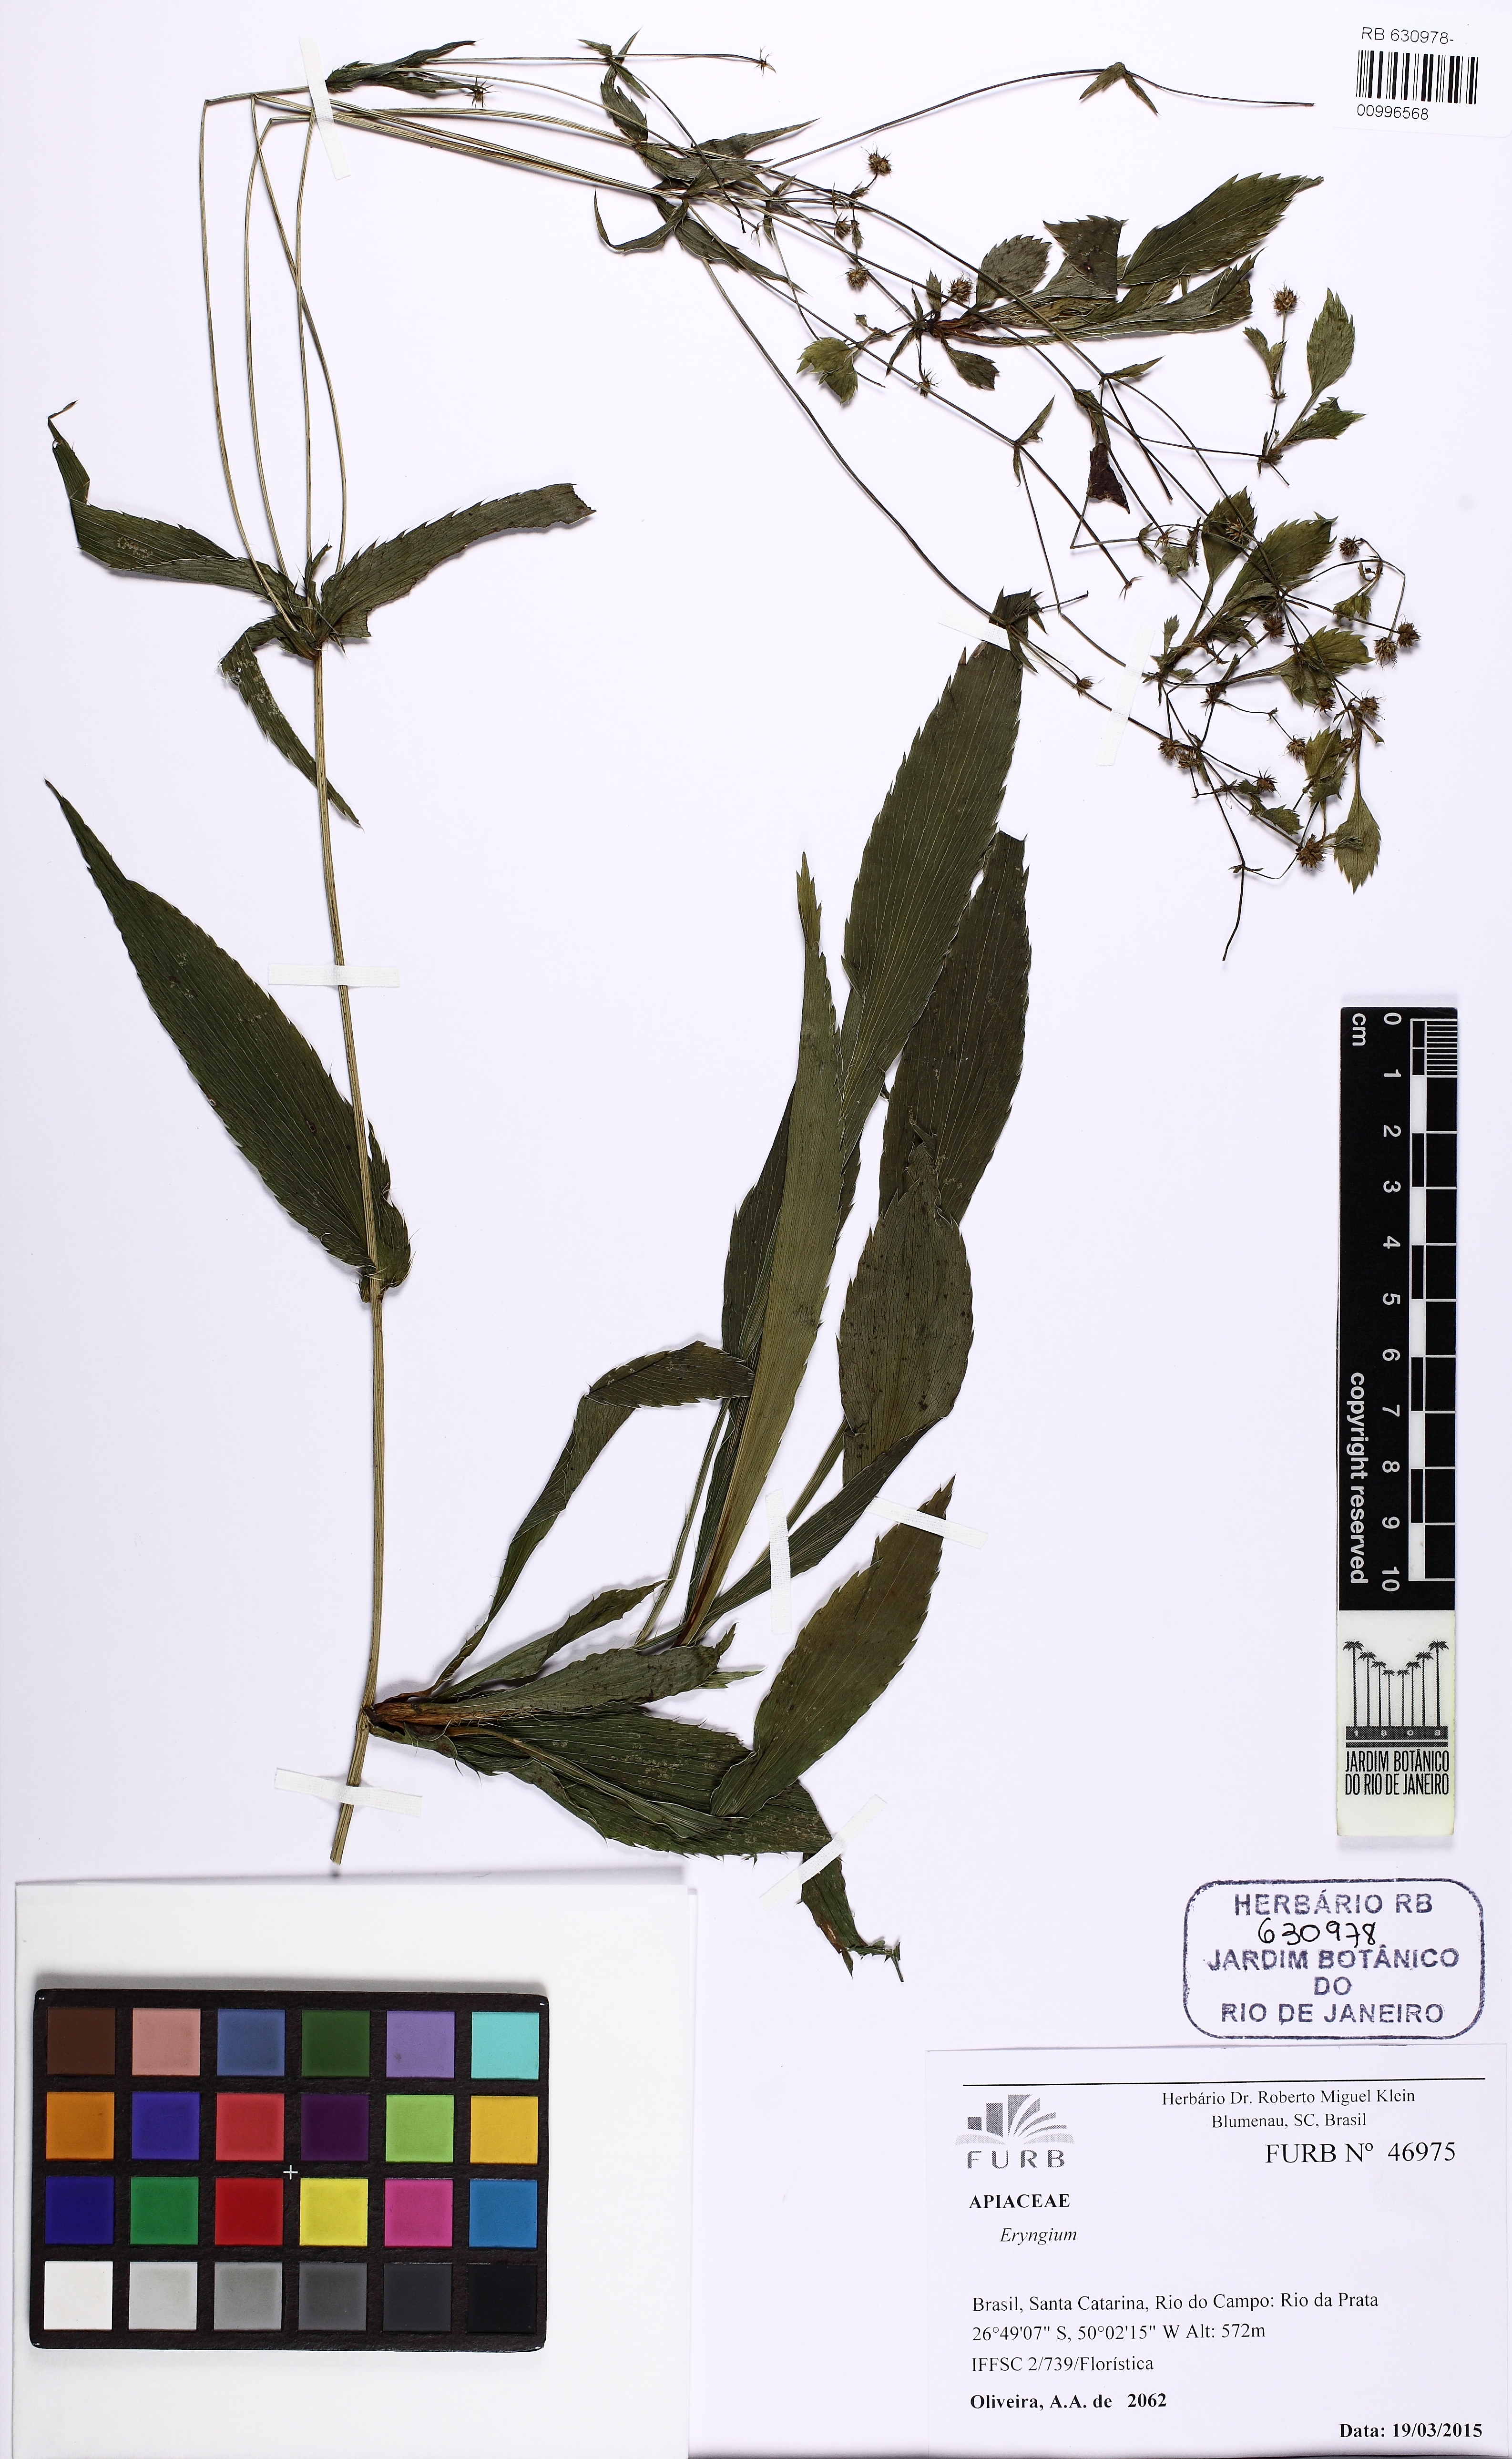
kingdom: Plantae
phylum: Tracheophyta
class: Magnoliopsida
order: Apiales
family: Apiaceae
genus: Eryngium
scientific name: Eryngium dusenii
